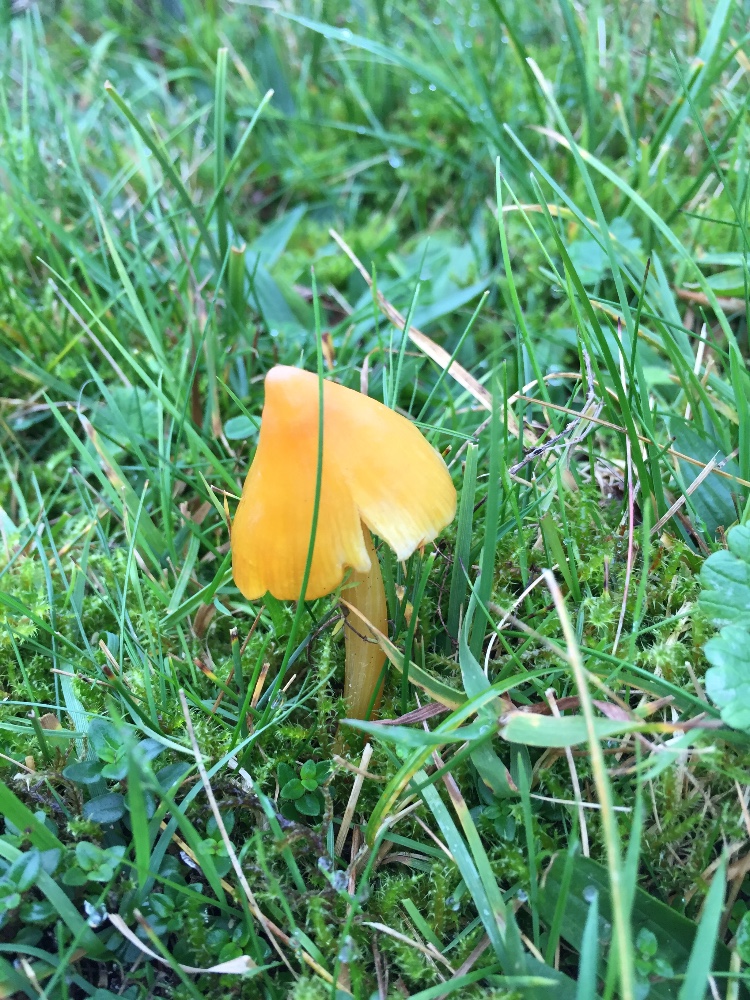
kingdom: Fungi
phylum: Basidiomycota
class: Agaricomycetes
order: Agaricales
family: Hygrophoraceae
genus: Hygrocybe
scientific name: Hygrocybe acutoconica
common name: spidspuklet vokshat
